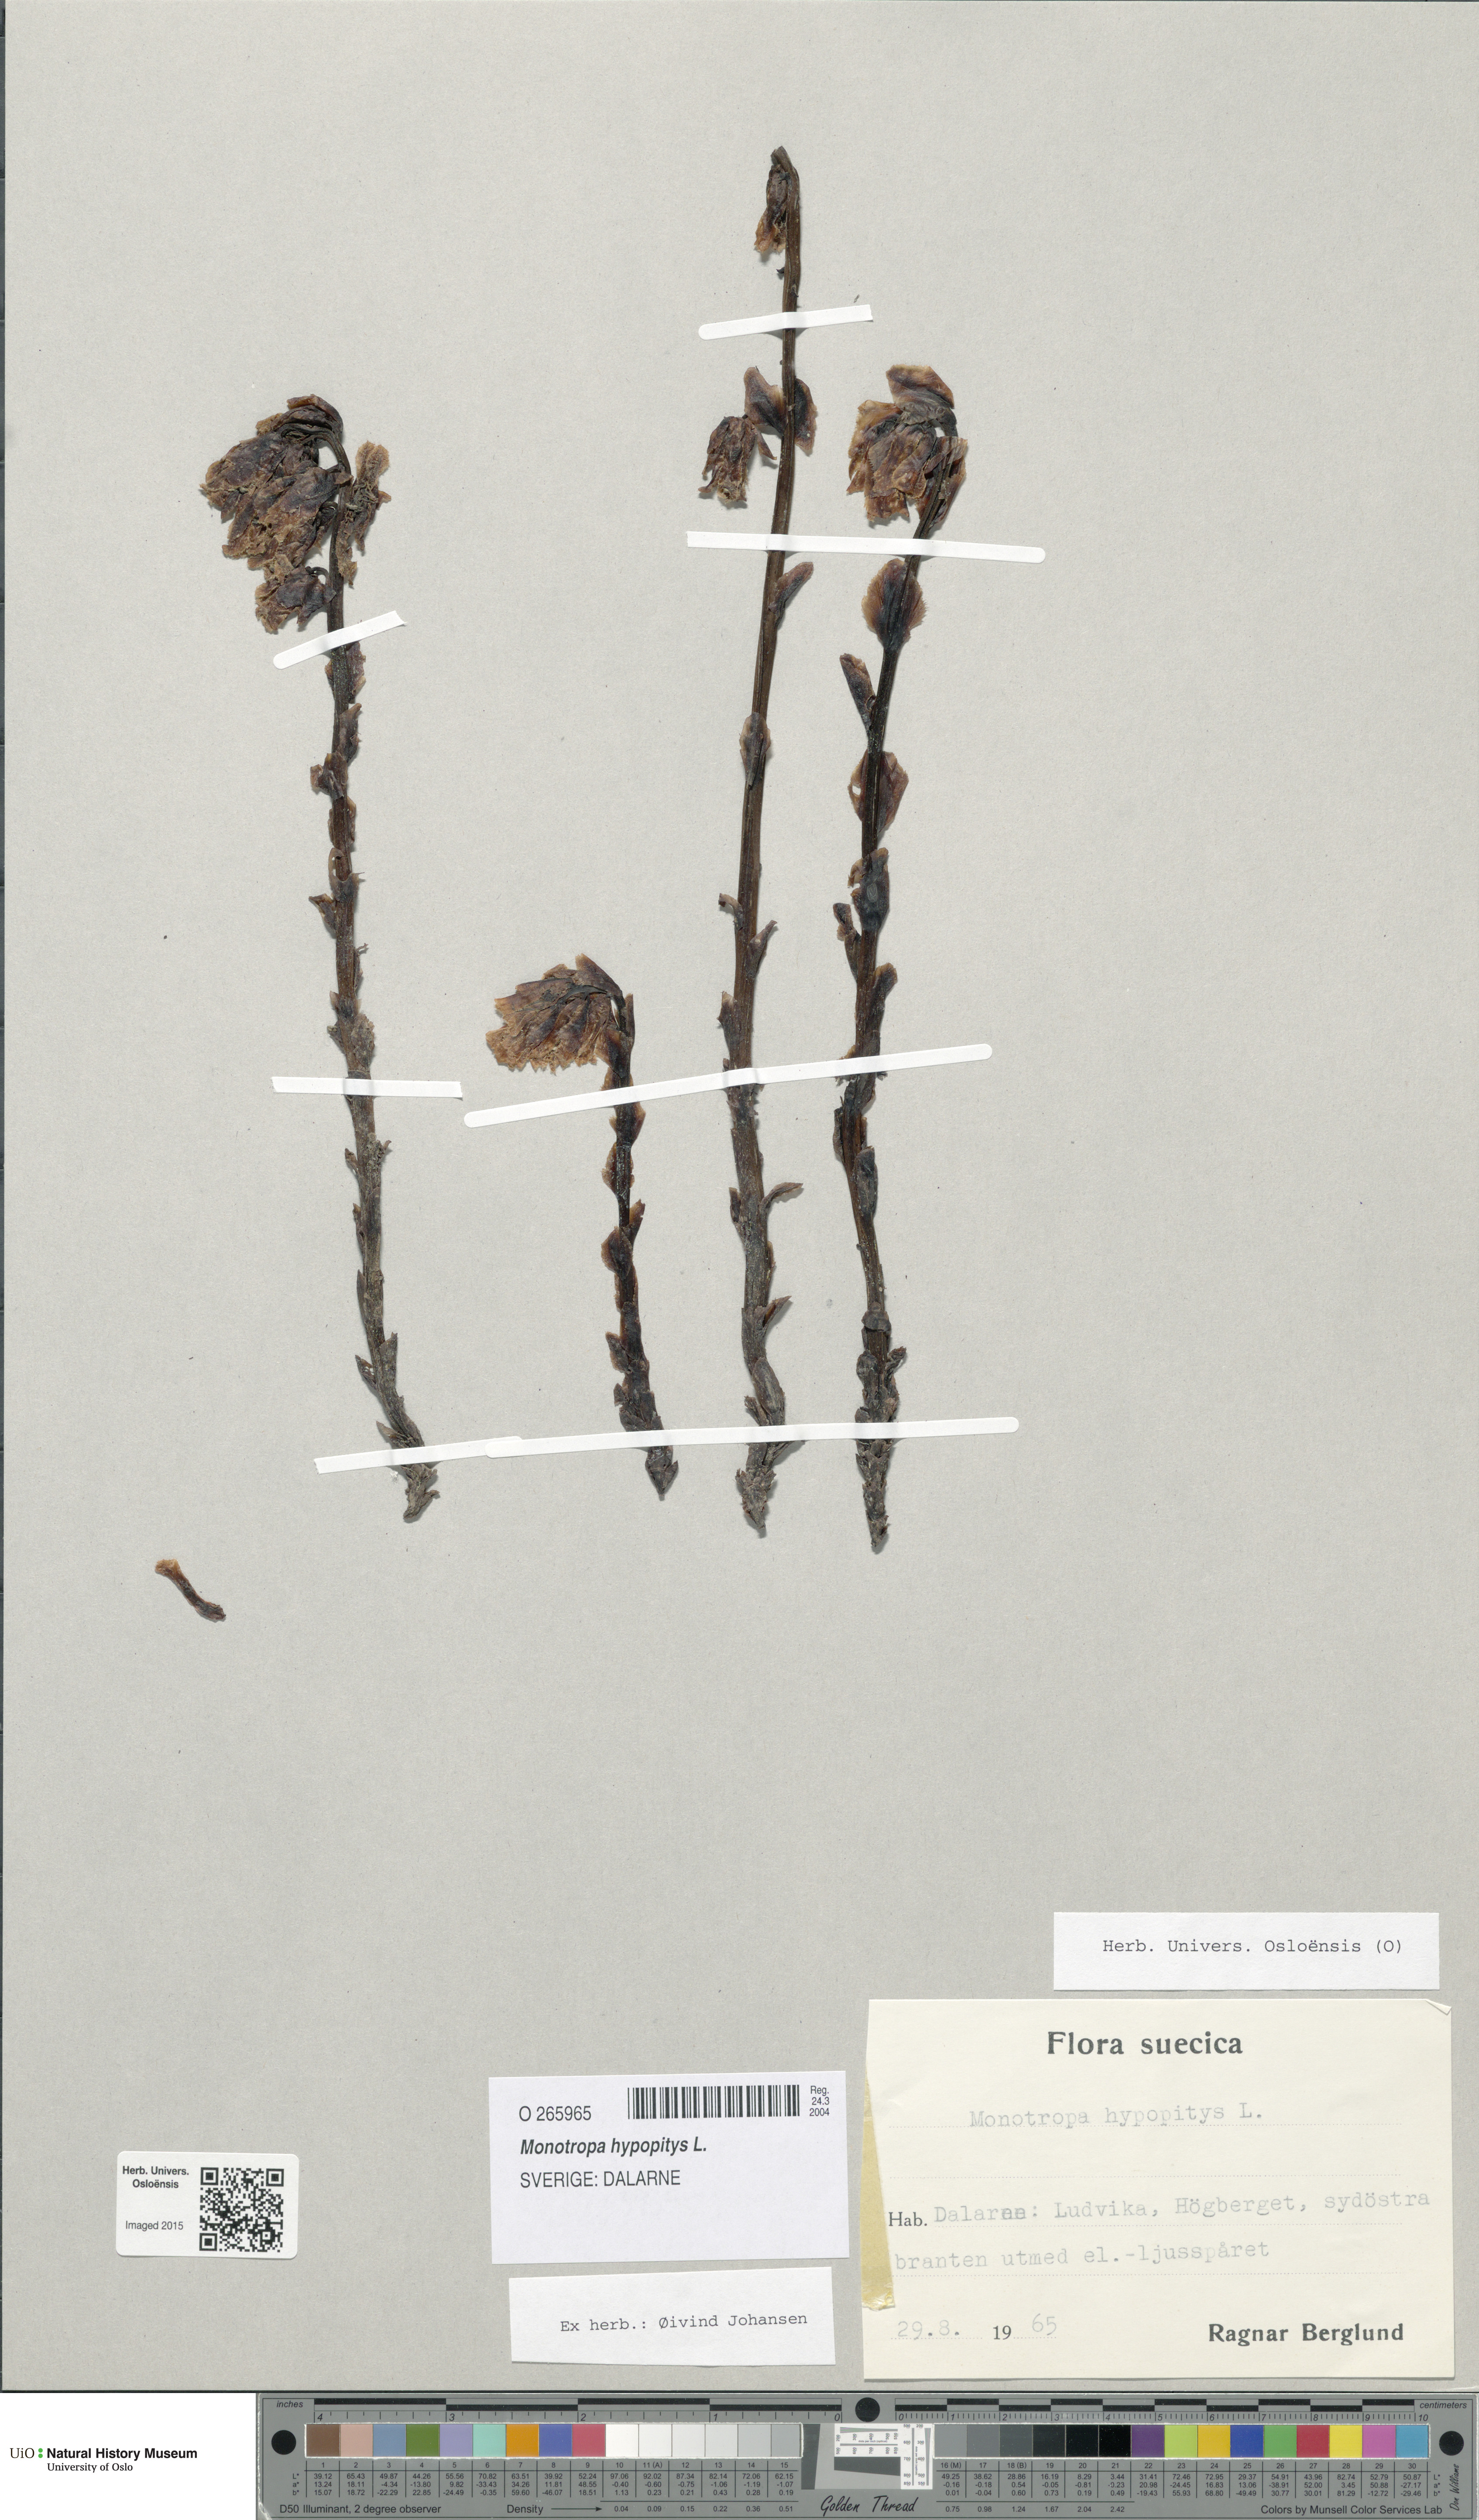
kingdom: Plantae
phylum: Tracheophyta
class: Magnoliopsida
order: Ericales
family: Ericaceae
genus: Hypopitys
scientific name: Hypopitys monotropa
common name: Yellow bird's-nest
